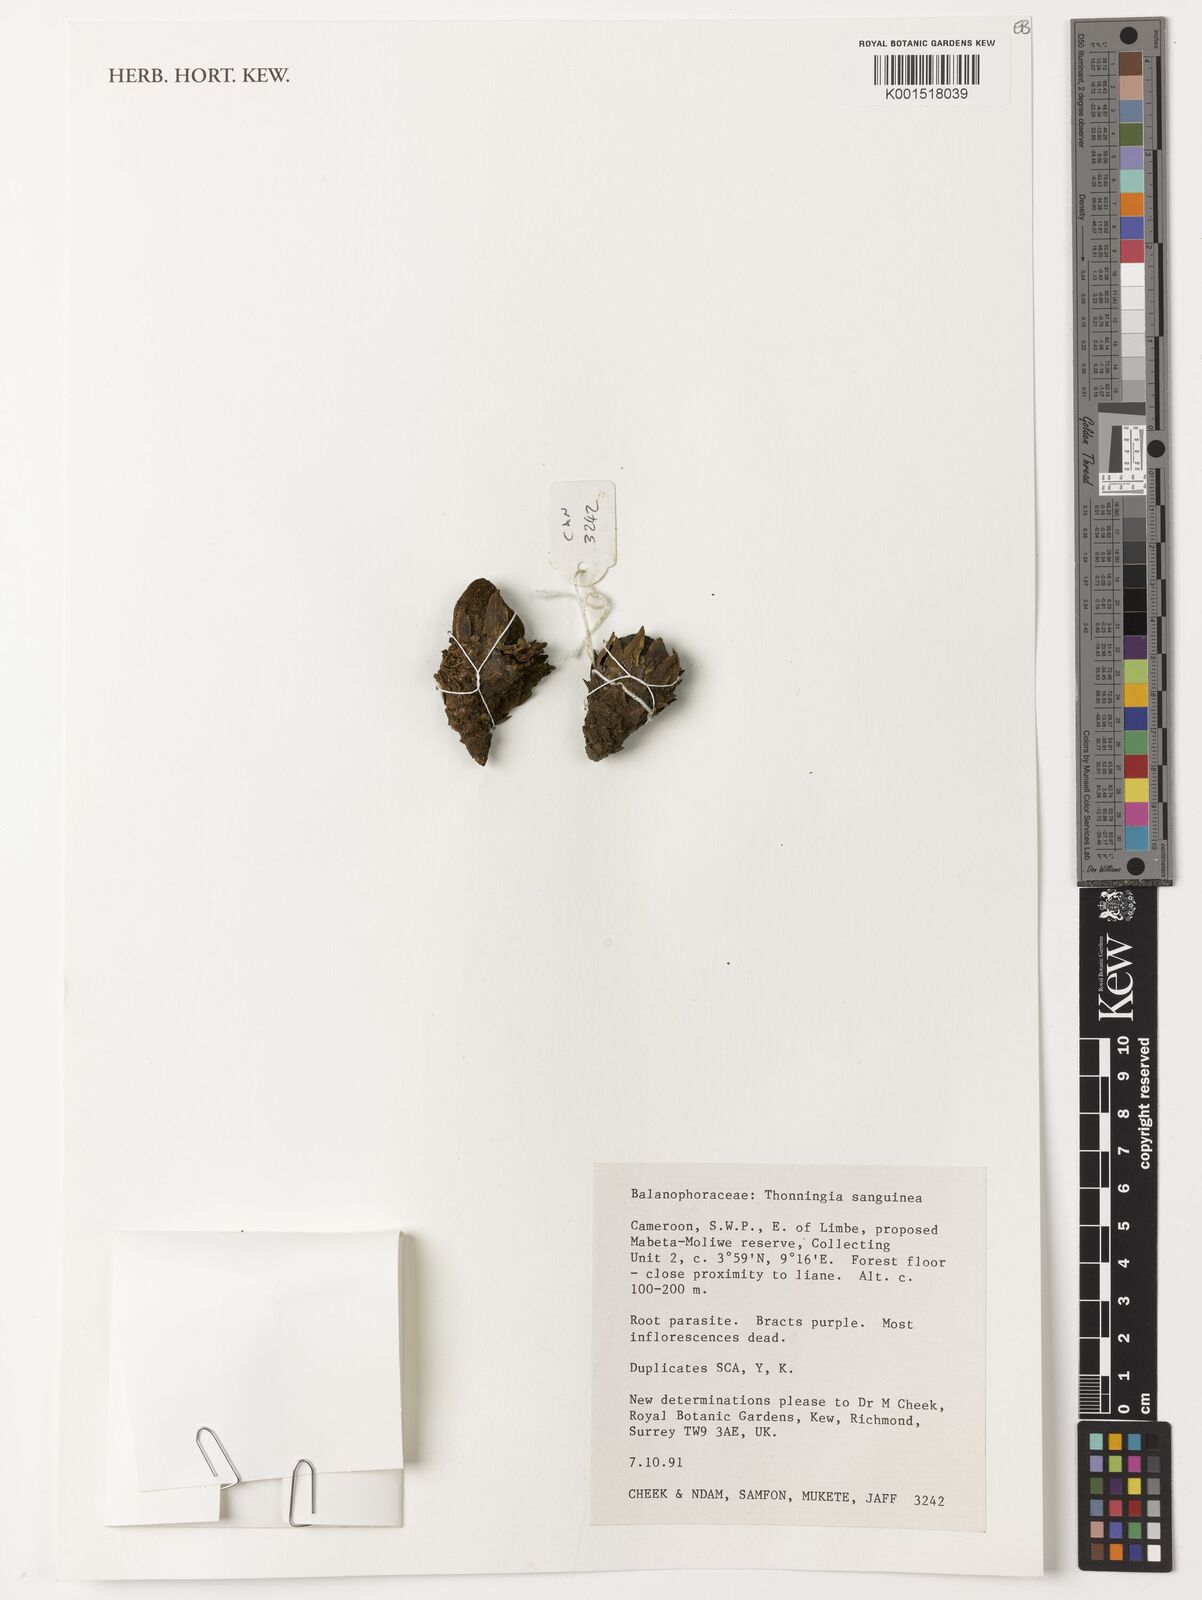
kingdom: Plantae
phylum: Tracheophyta
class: Magnoliopsida
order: Santalales
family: Balanophoraceae
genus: Thonningia
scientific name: Thonningia sanguinea
